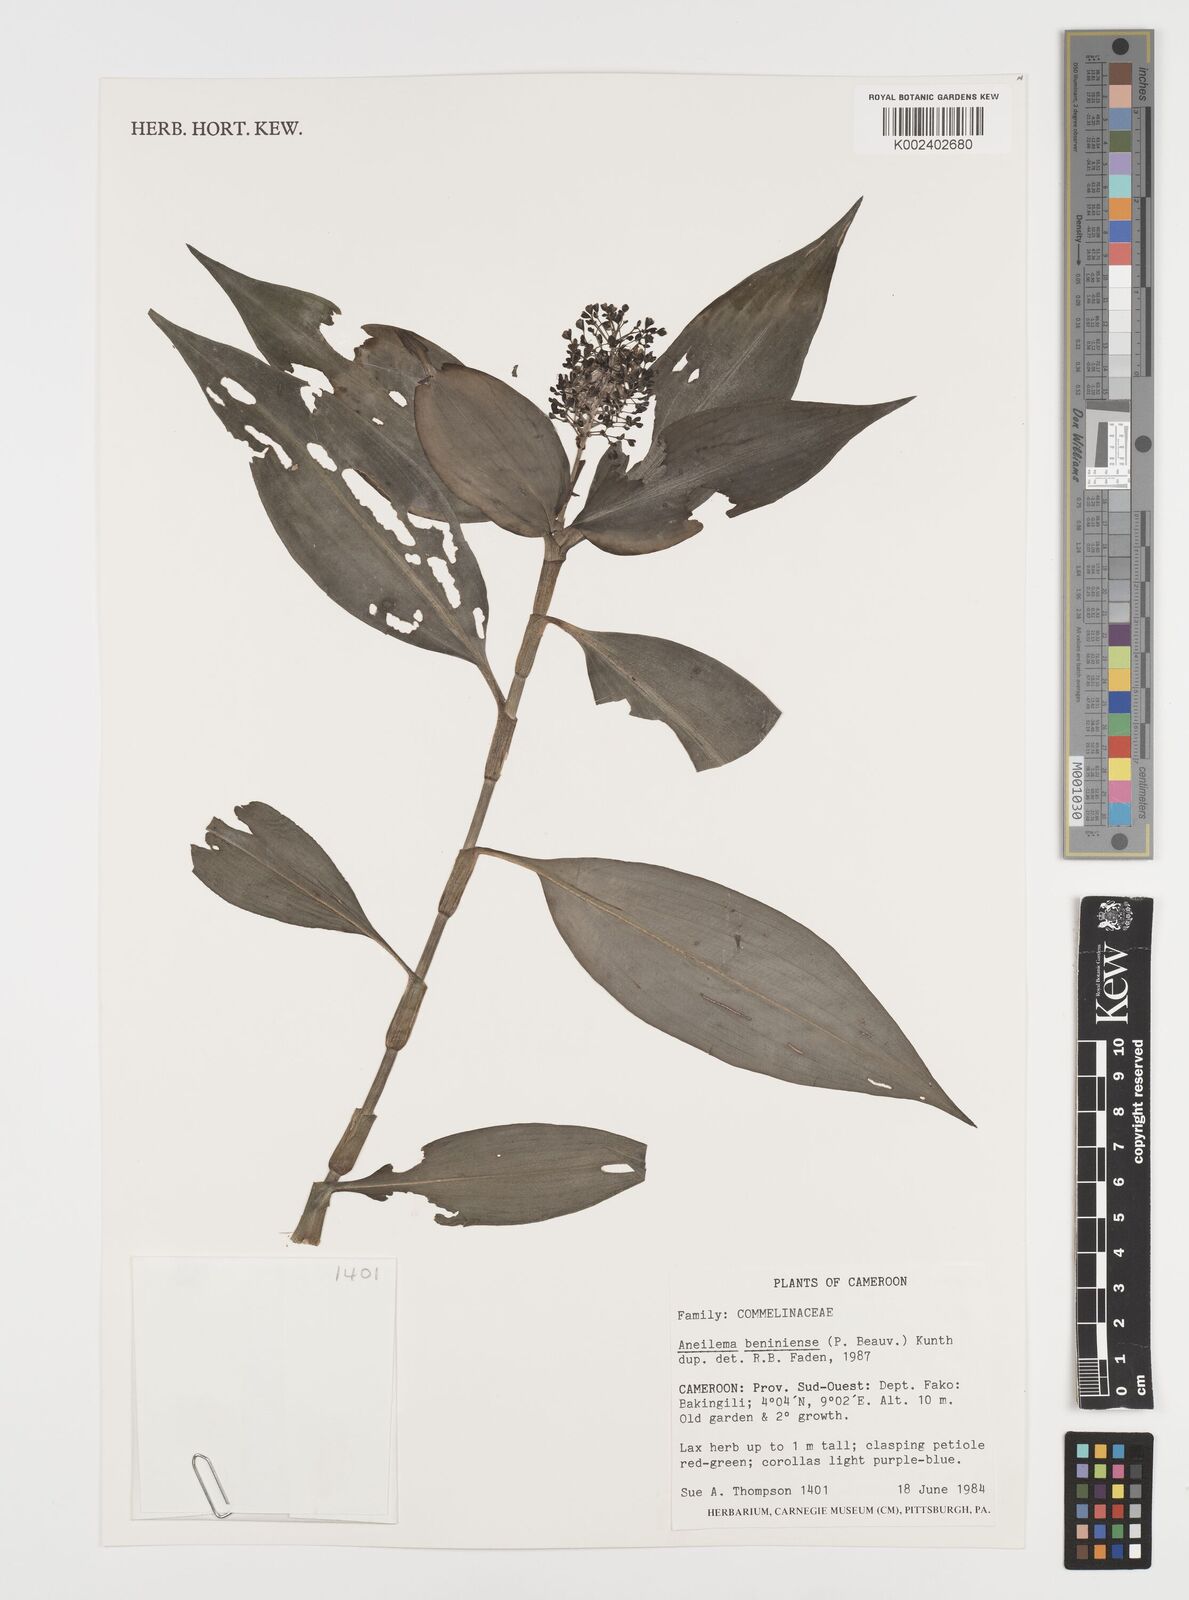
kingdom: Plantae
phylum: Tracheophyta
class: Liliopsida
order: Commelinales
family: Commelinaceae
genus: Aneilema
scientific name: Aneilema beniniense
